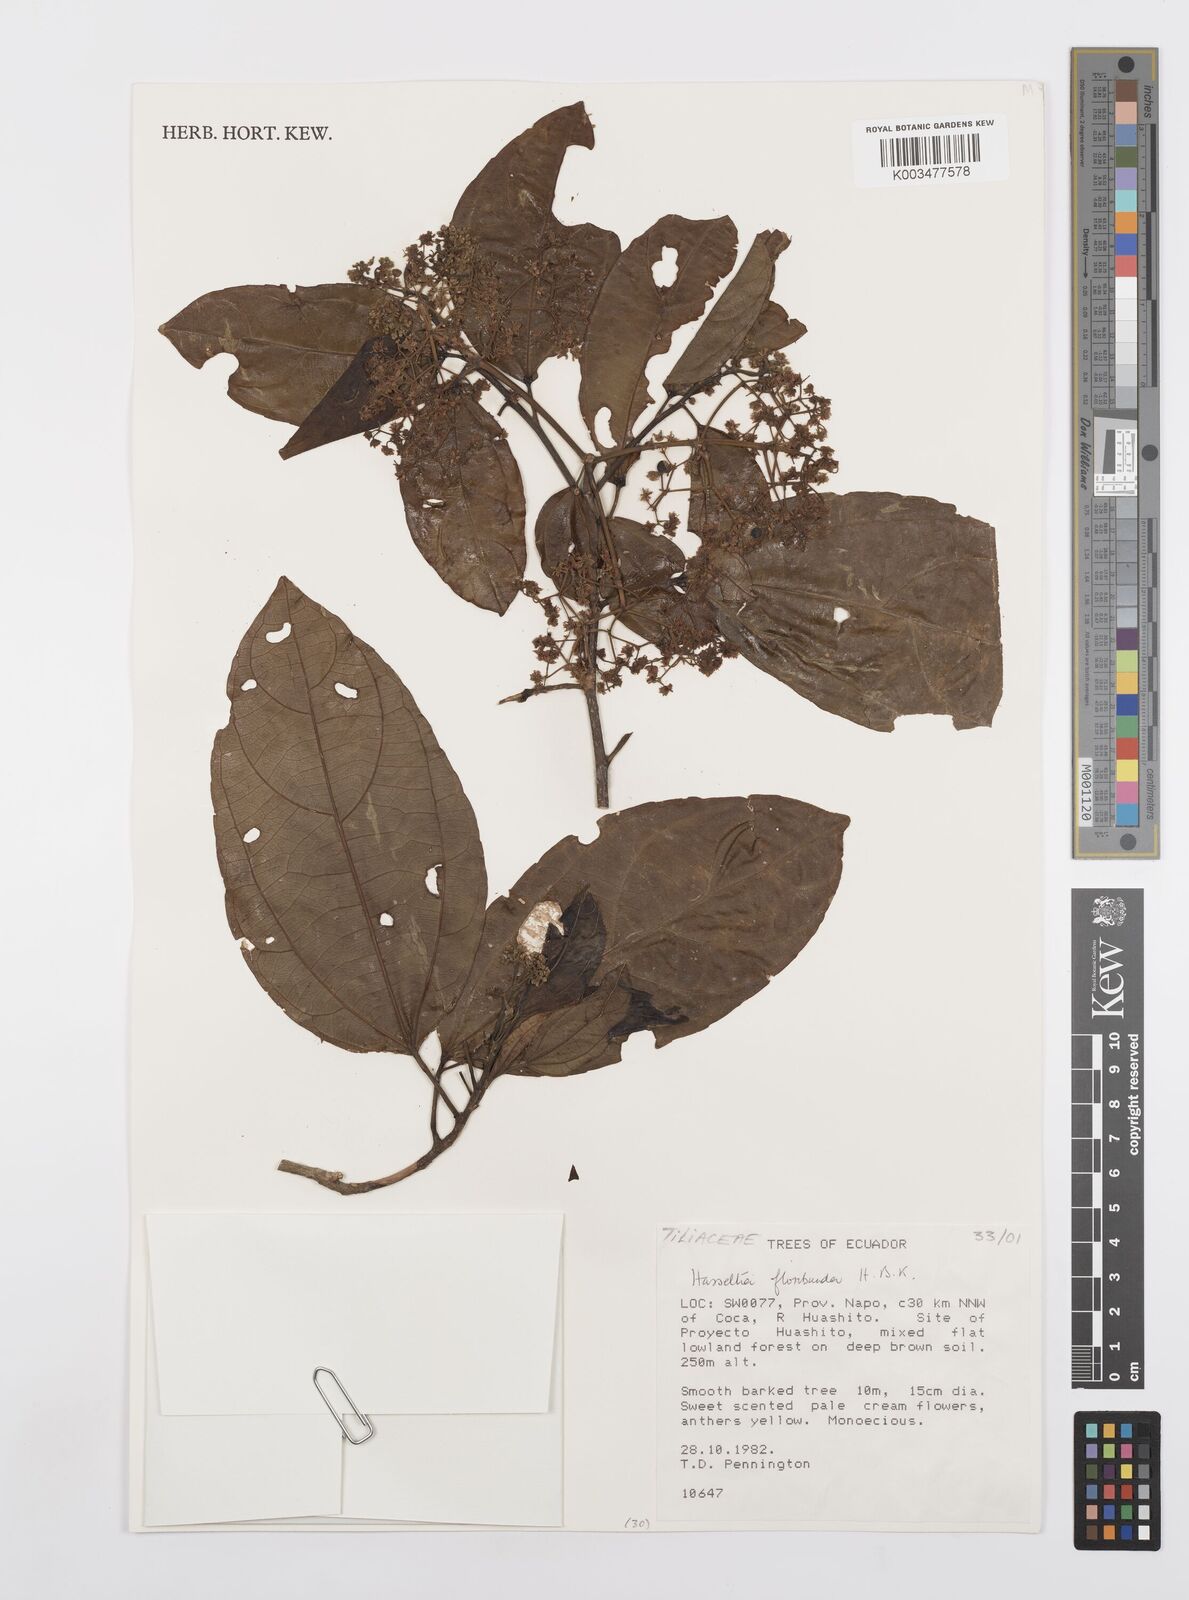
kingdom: Plantae
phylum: Tracheophyta
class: Magnoliopsida
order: Malpighiales
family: Salicaceae
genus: Hasseltia
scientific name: Hasseltia floribunda
